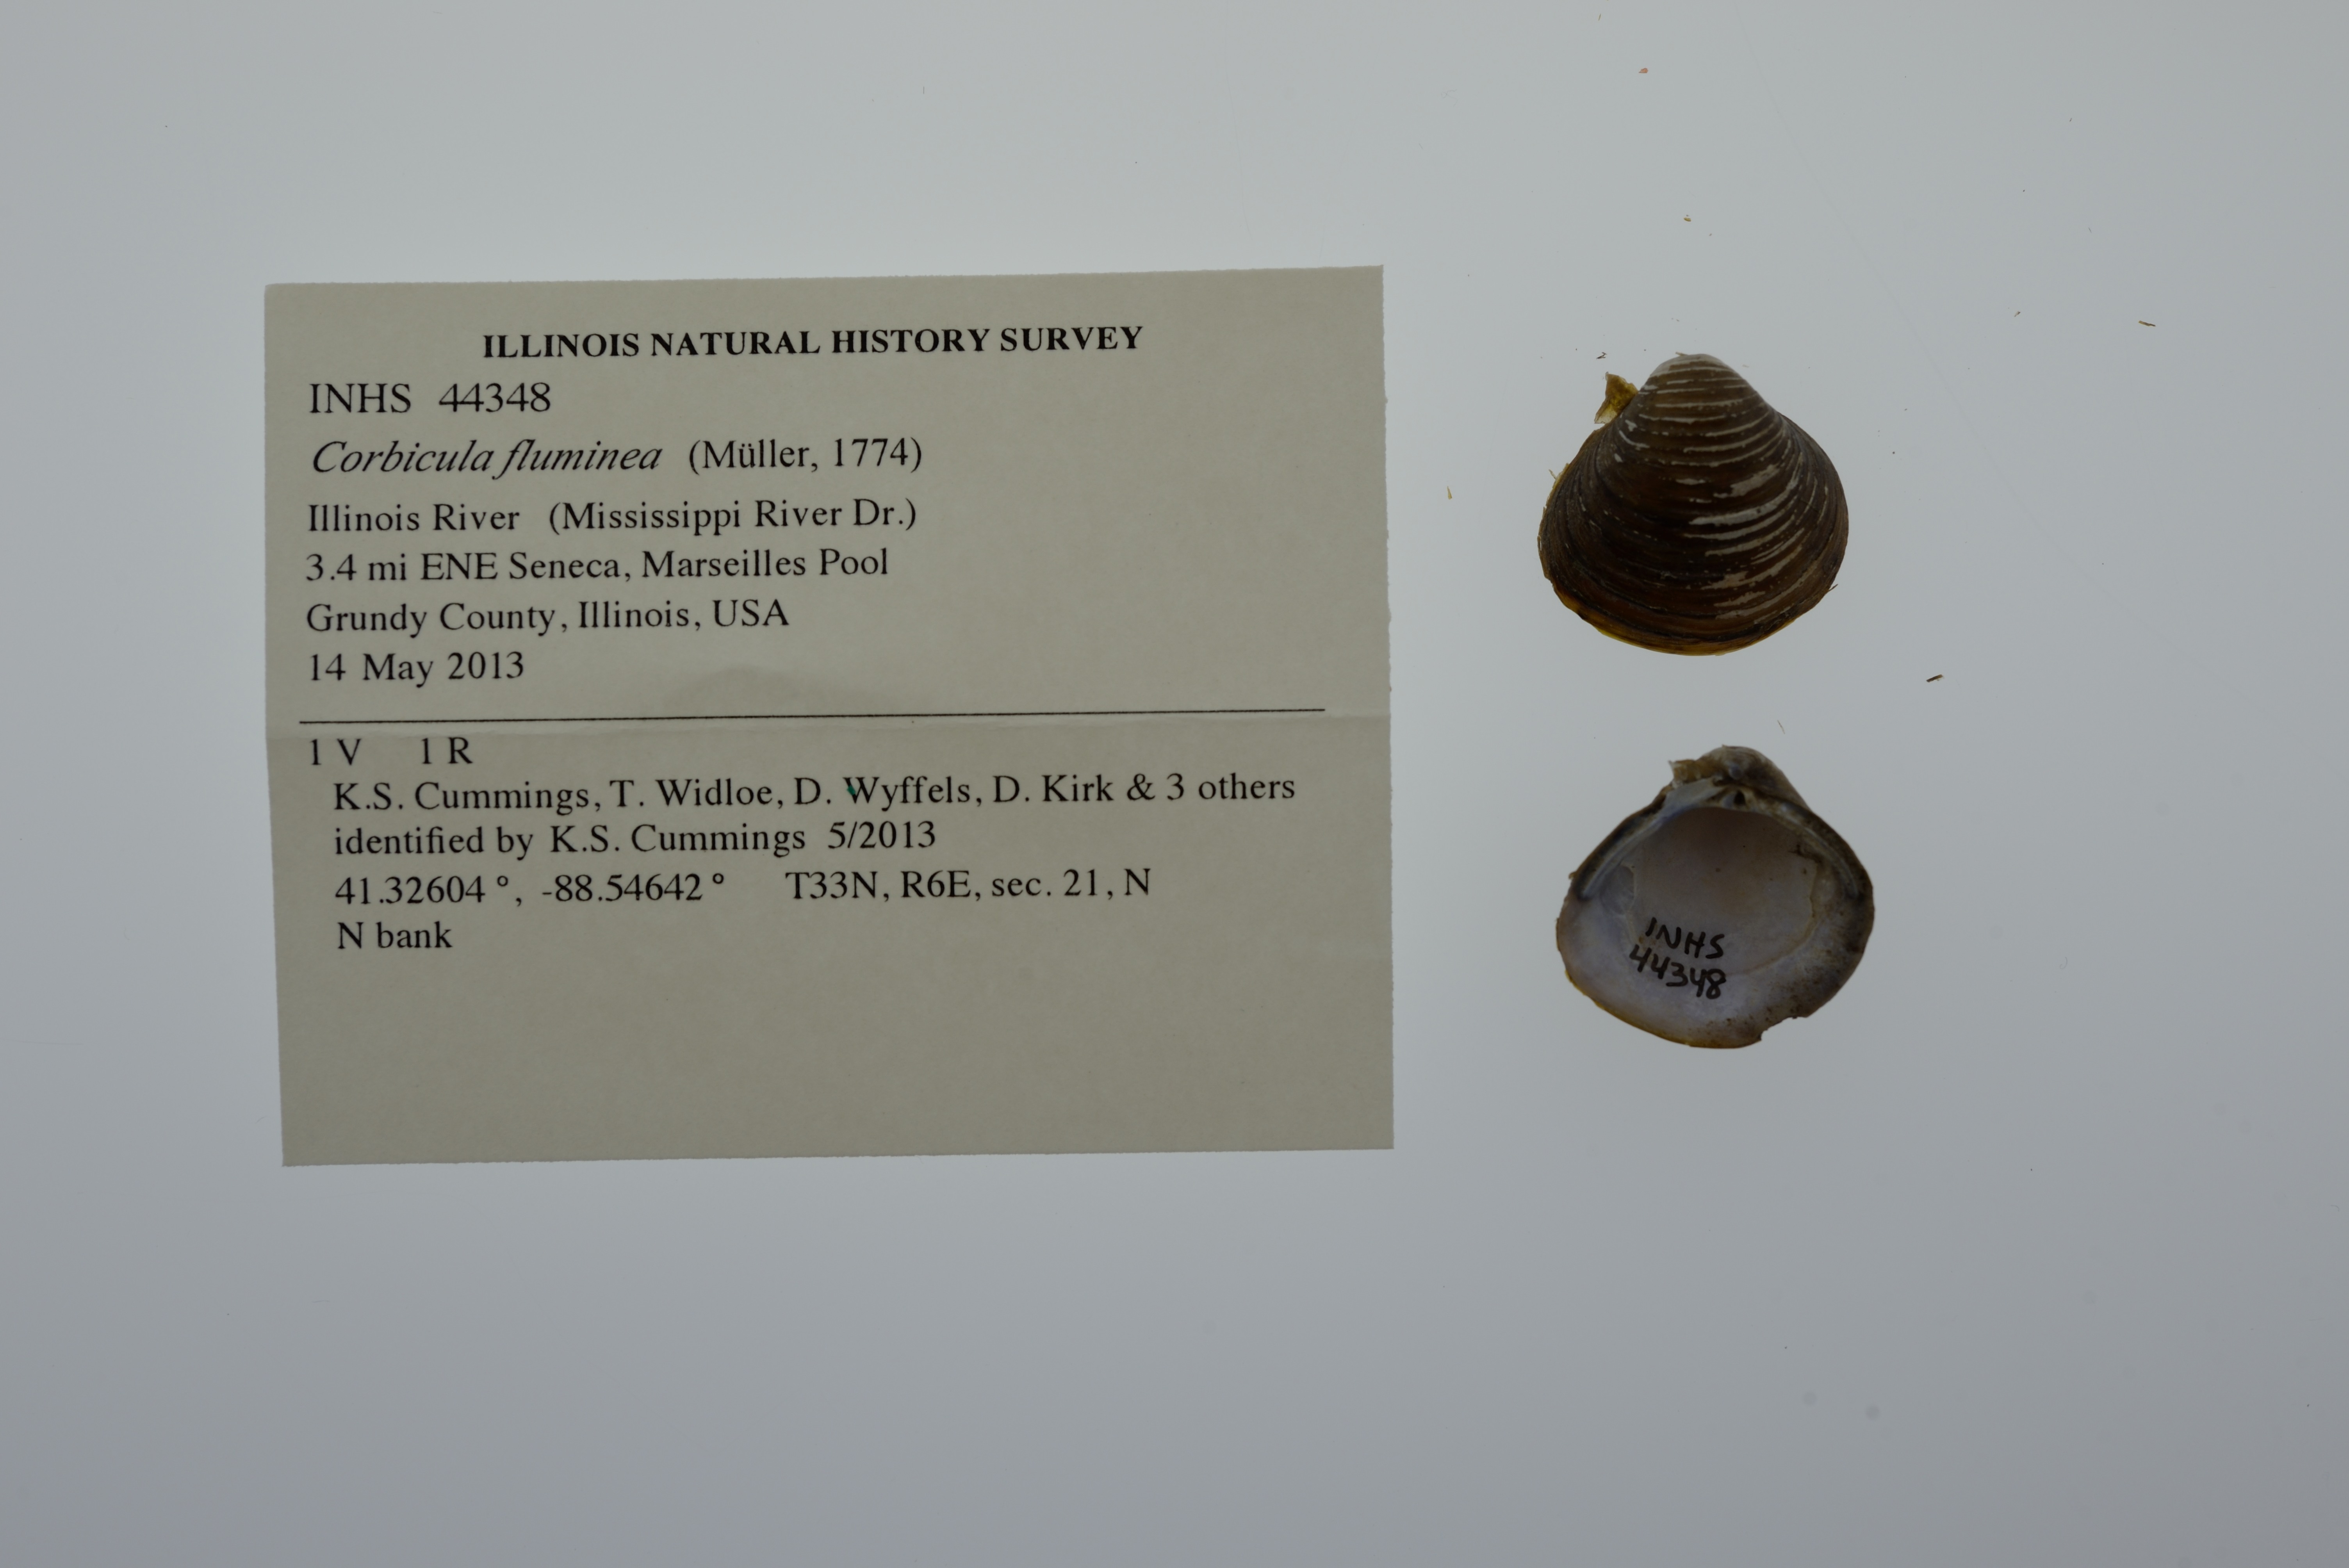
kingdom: Animalia
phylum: Mollusca
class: Bivalvia
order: Venerida
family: Cyrenidae
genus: Corbicula
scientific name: Corbicula fluminea
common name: Asian clam
